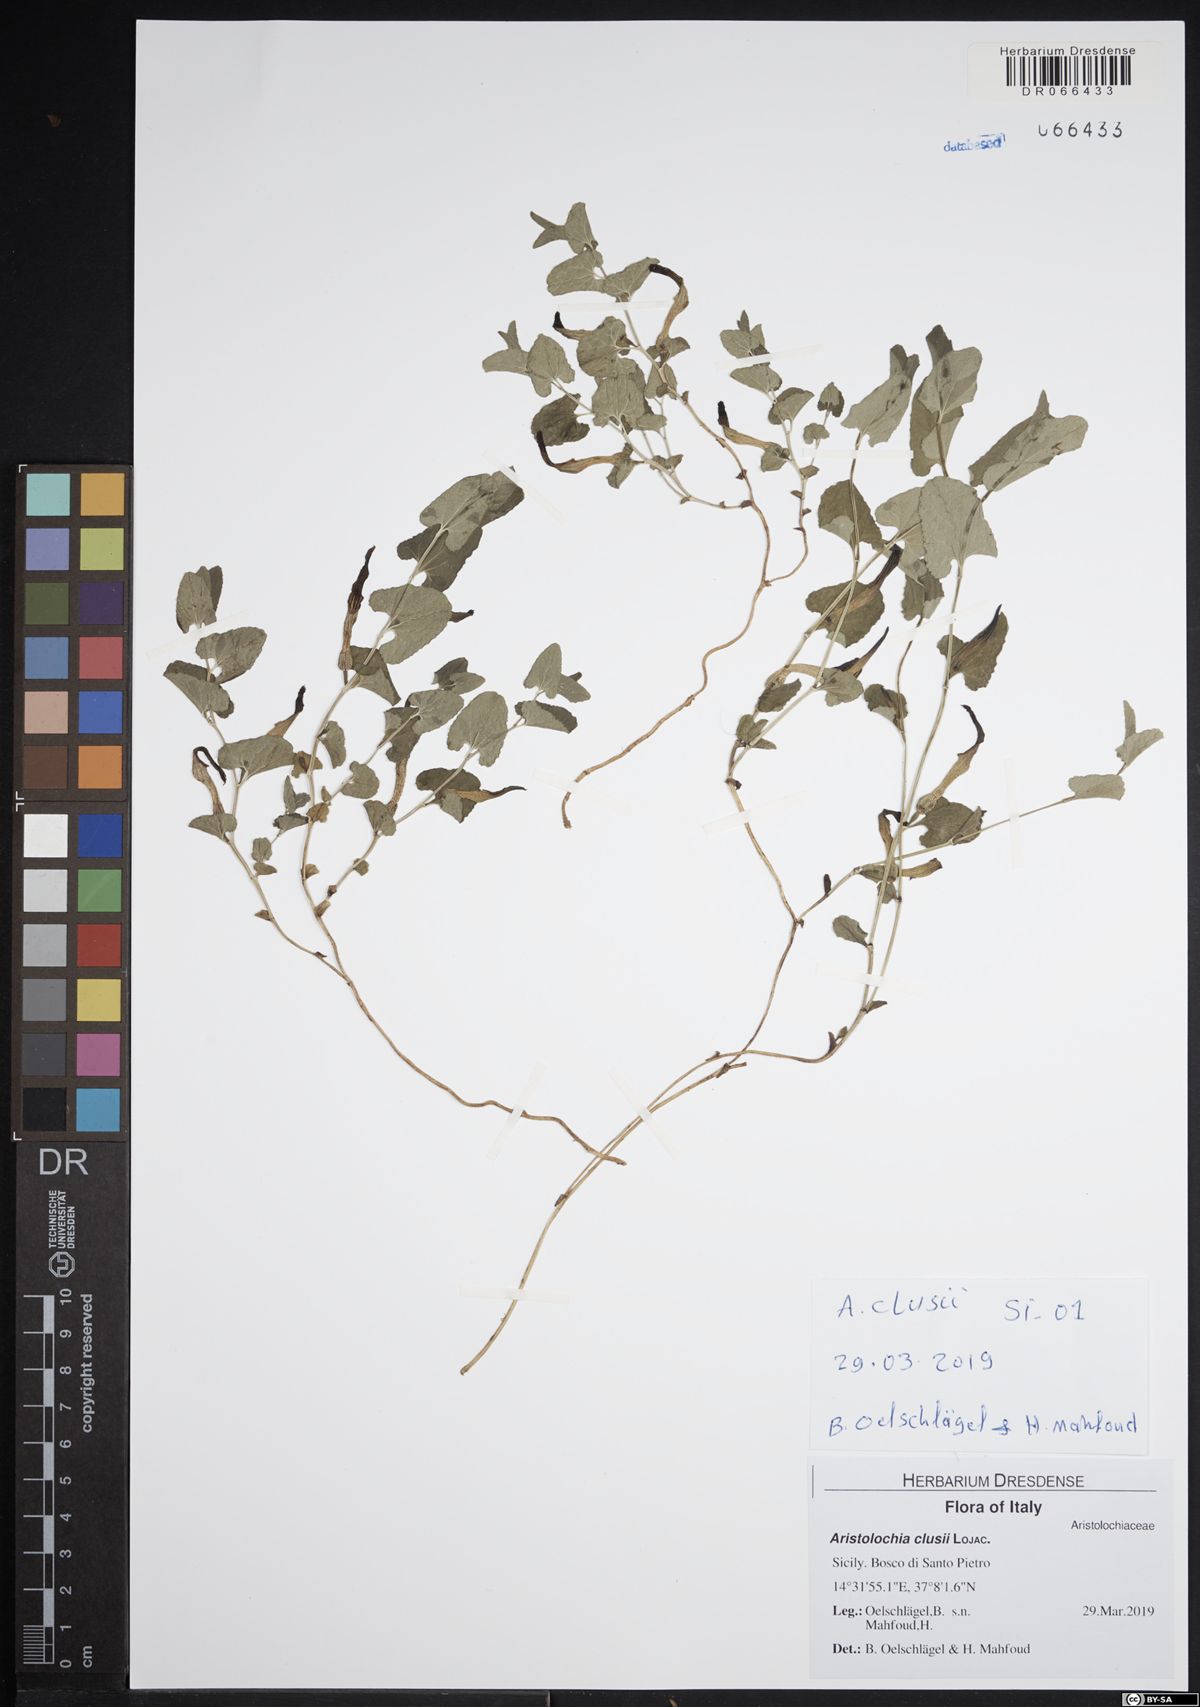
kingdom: Plantae
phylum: Tracheophyta
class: Magnoliopsida
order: Piperales
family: Aristolochiaceae
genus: Aristolochia
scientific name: Aristolochia clusii
